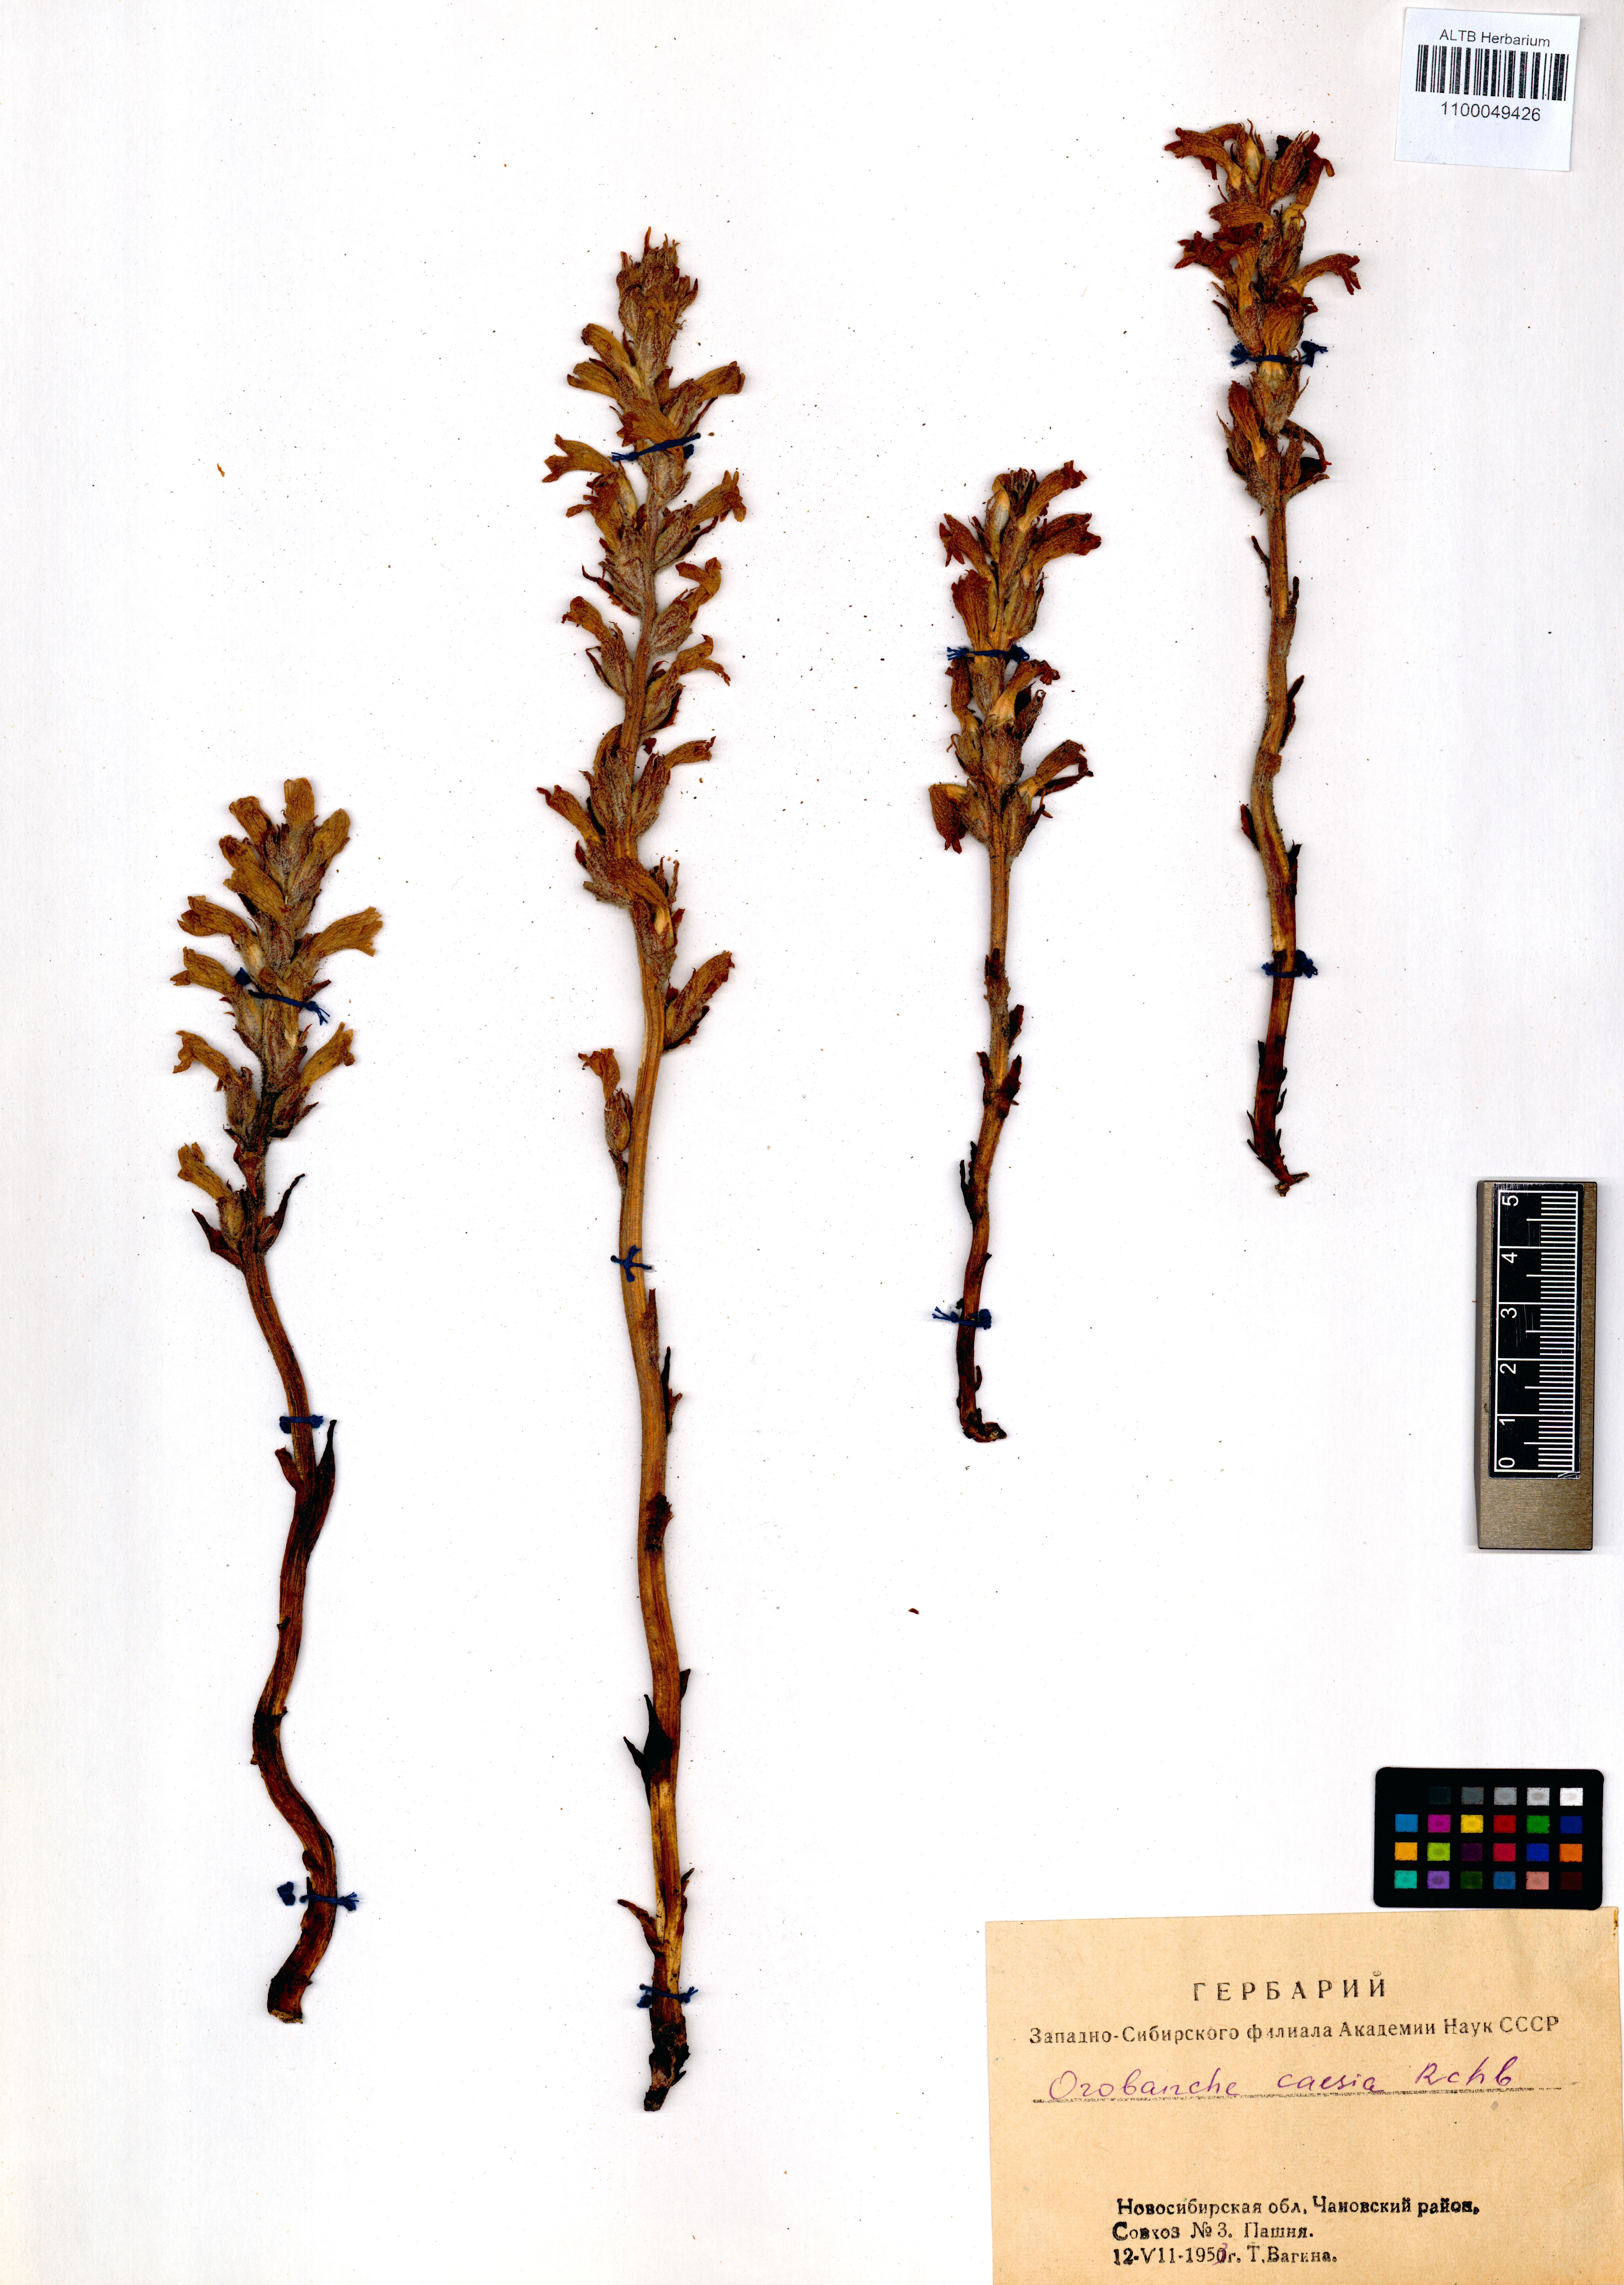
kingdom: Plantae
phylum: Tracheophyta
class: Magnoliopsida
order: Lamiales
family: Orobanchaceae
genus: Phelipanche
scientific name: Phelipanche caesia
